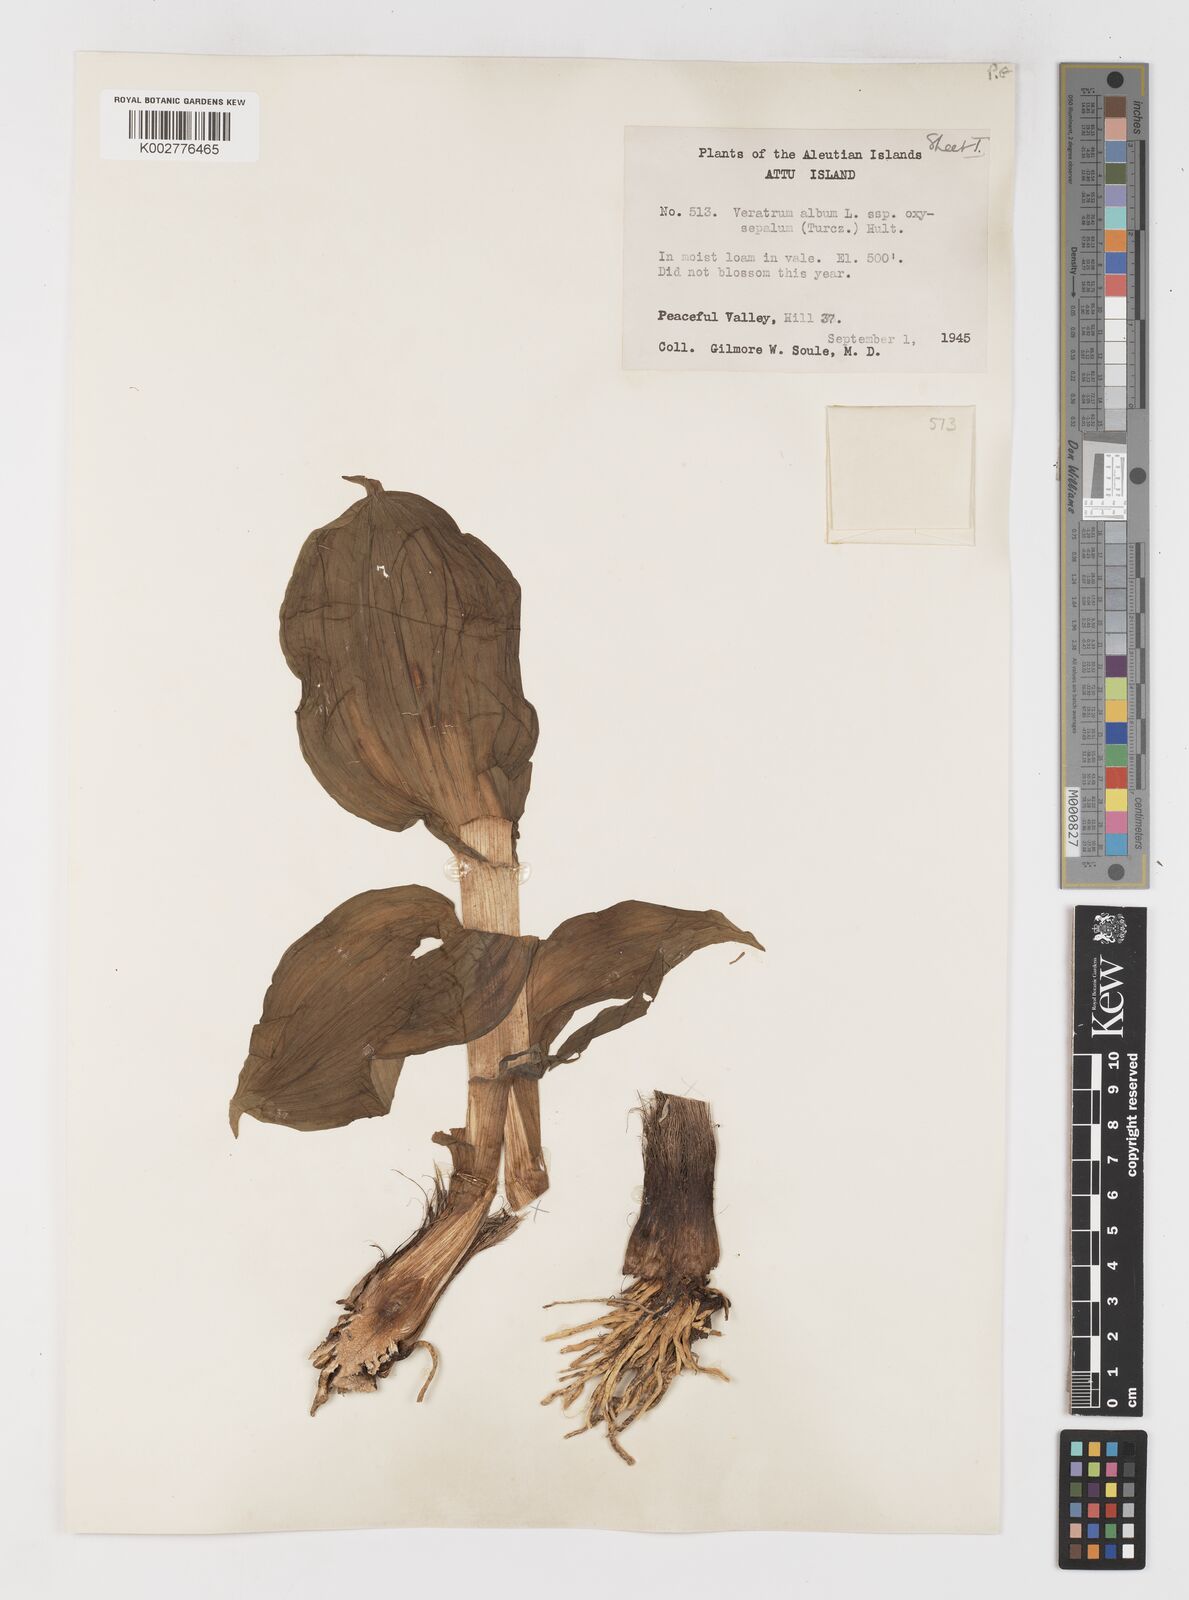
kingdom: Plantae
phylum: Tracheophyta
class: Liliopsida
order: Liliales
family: Melanthiaceae
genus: Veratrum
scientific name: Veratrum oxysepalum
